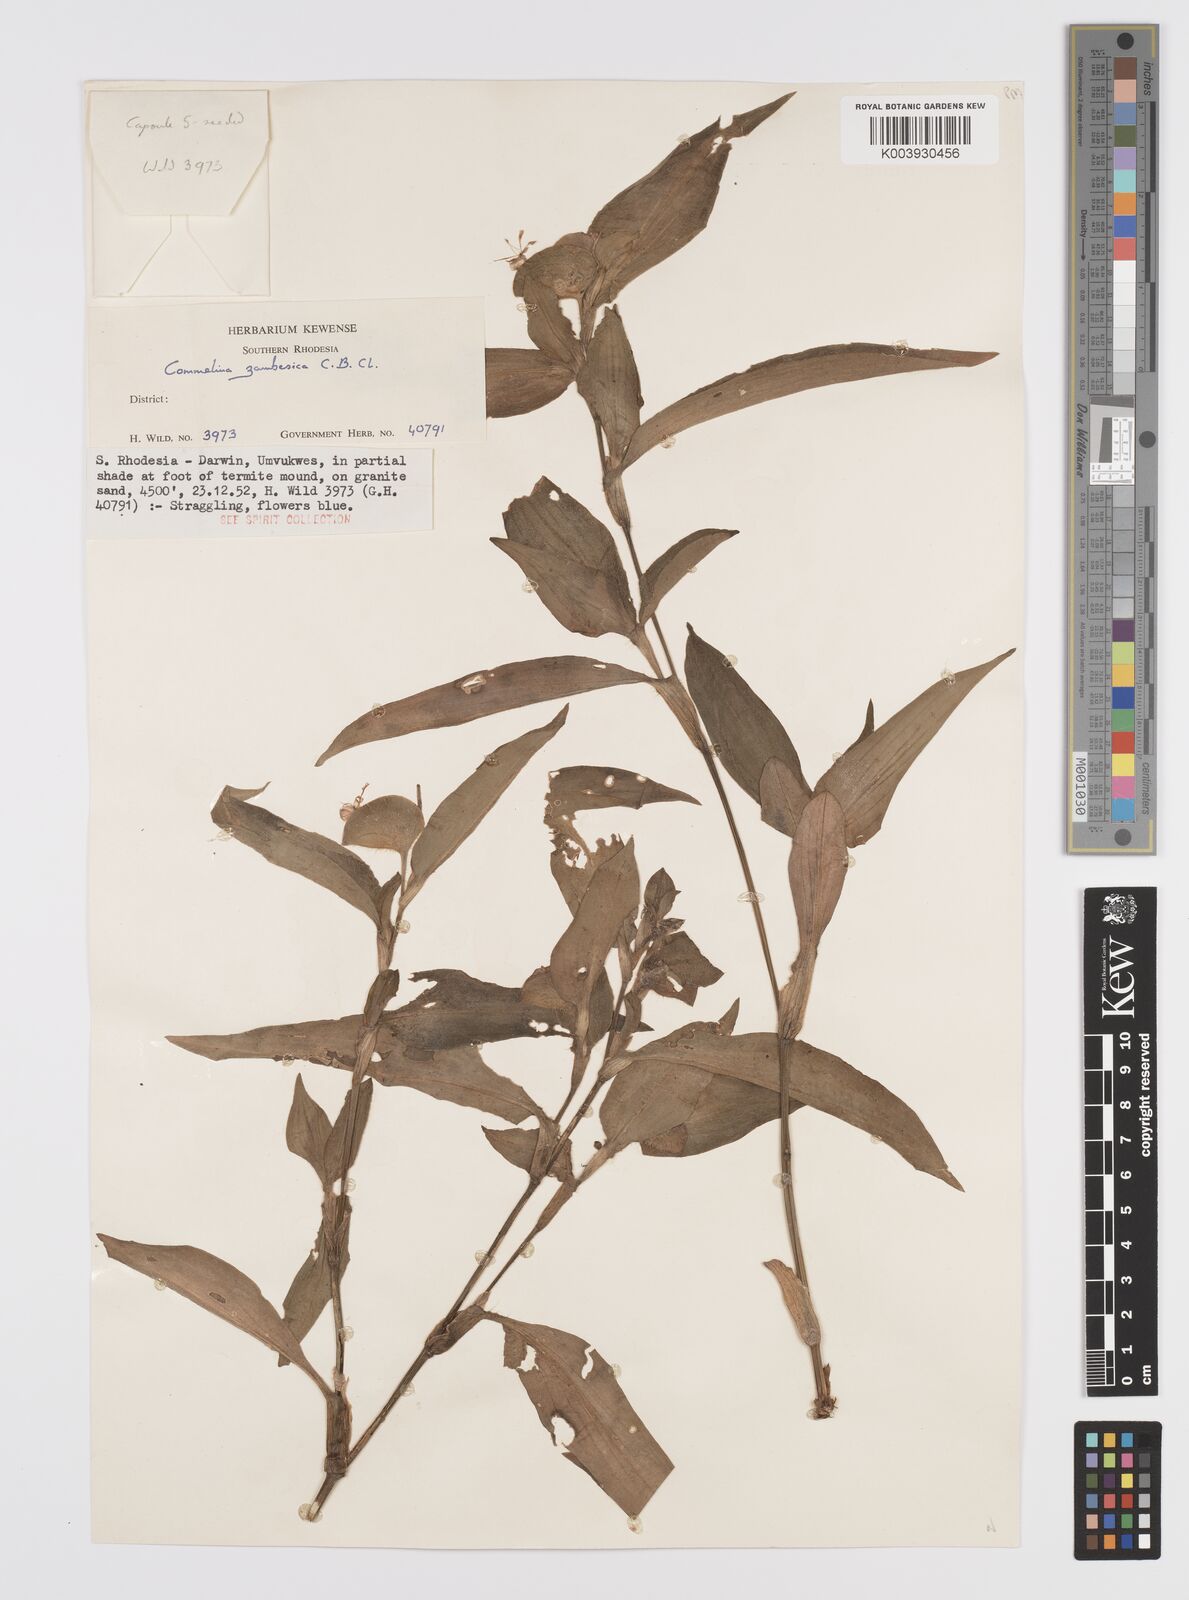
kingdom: Plantae
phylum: Tracheophyta
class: Liliopsida
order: Commelinales
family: Commelinaceae
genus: Commelina
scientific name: Commelina zambesica
